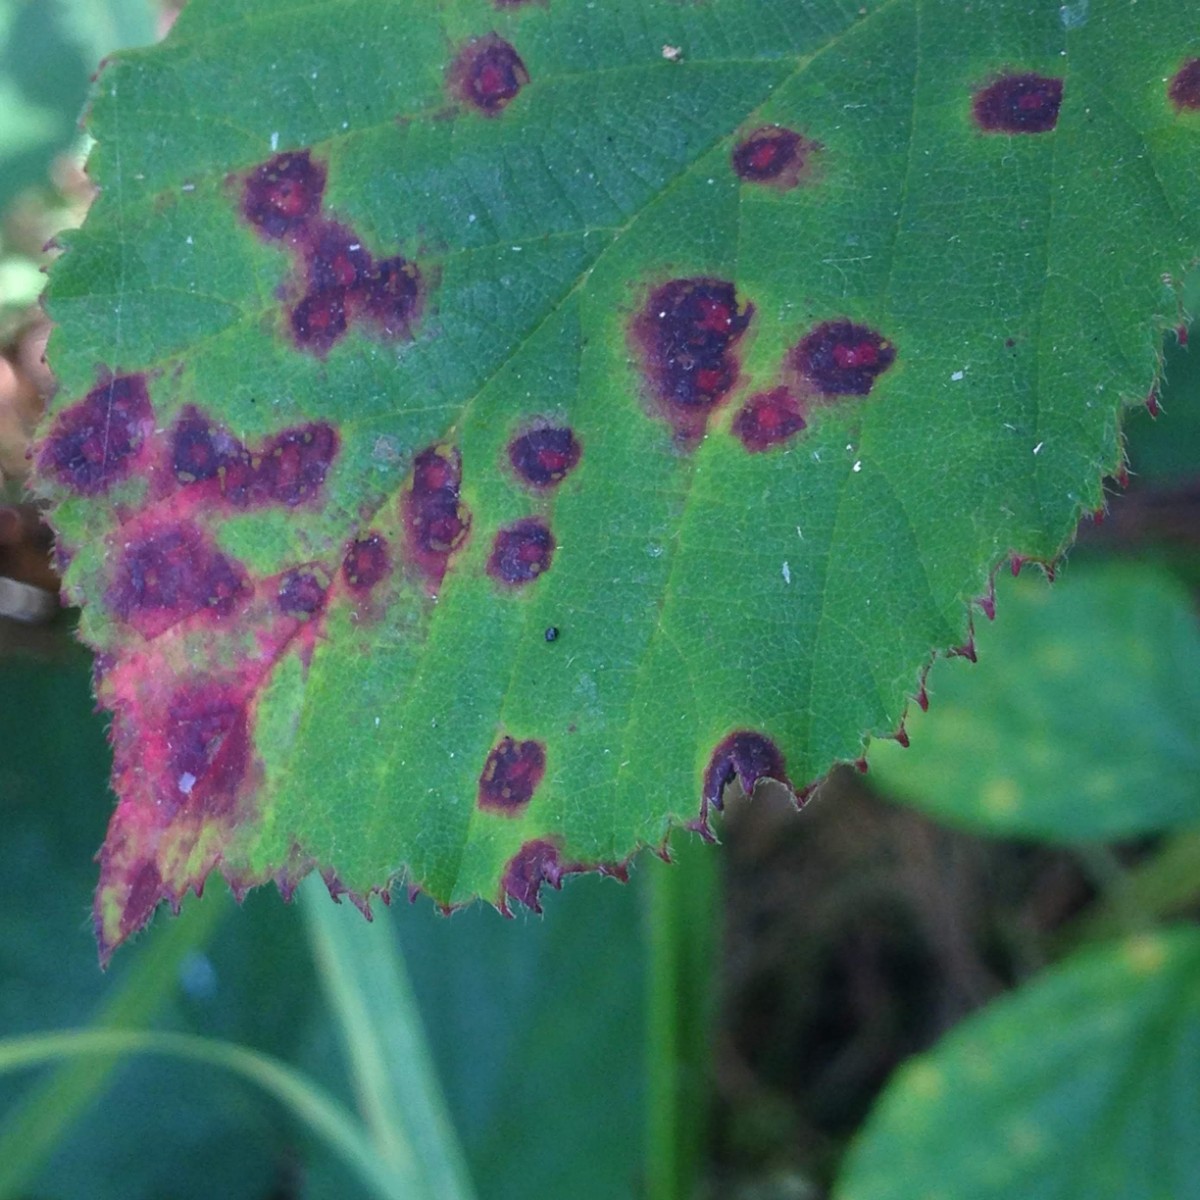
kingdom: Fungi
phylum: Basidiomycota
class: Pucciniomycetes
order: Pucciniales
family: Phragmidiaceae
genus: Phragmidium
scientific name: Phragmidium
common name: flercellerust
